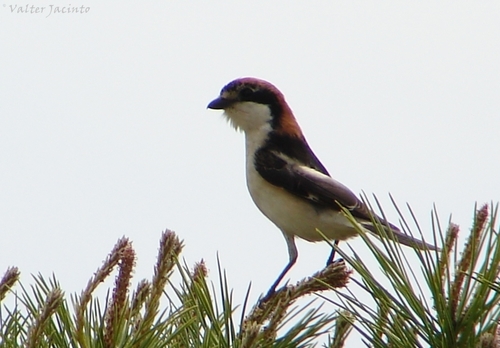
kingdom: Animalia
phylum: Chordata
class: Aves
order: Passeriformes
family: Laniidae
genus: Lanius
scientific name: Lanius senator
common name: Woodchat shrike
